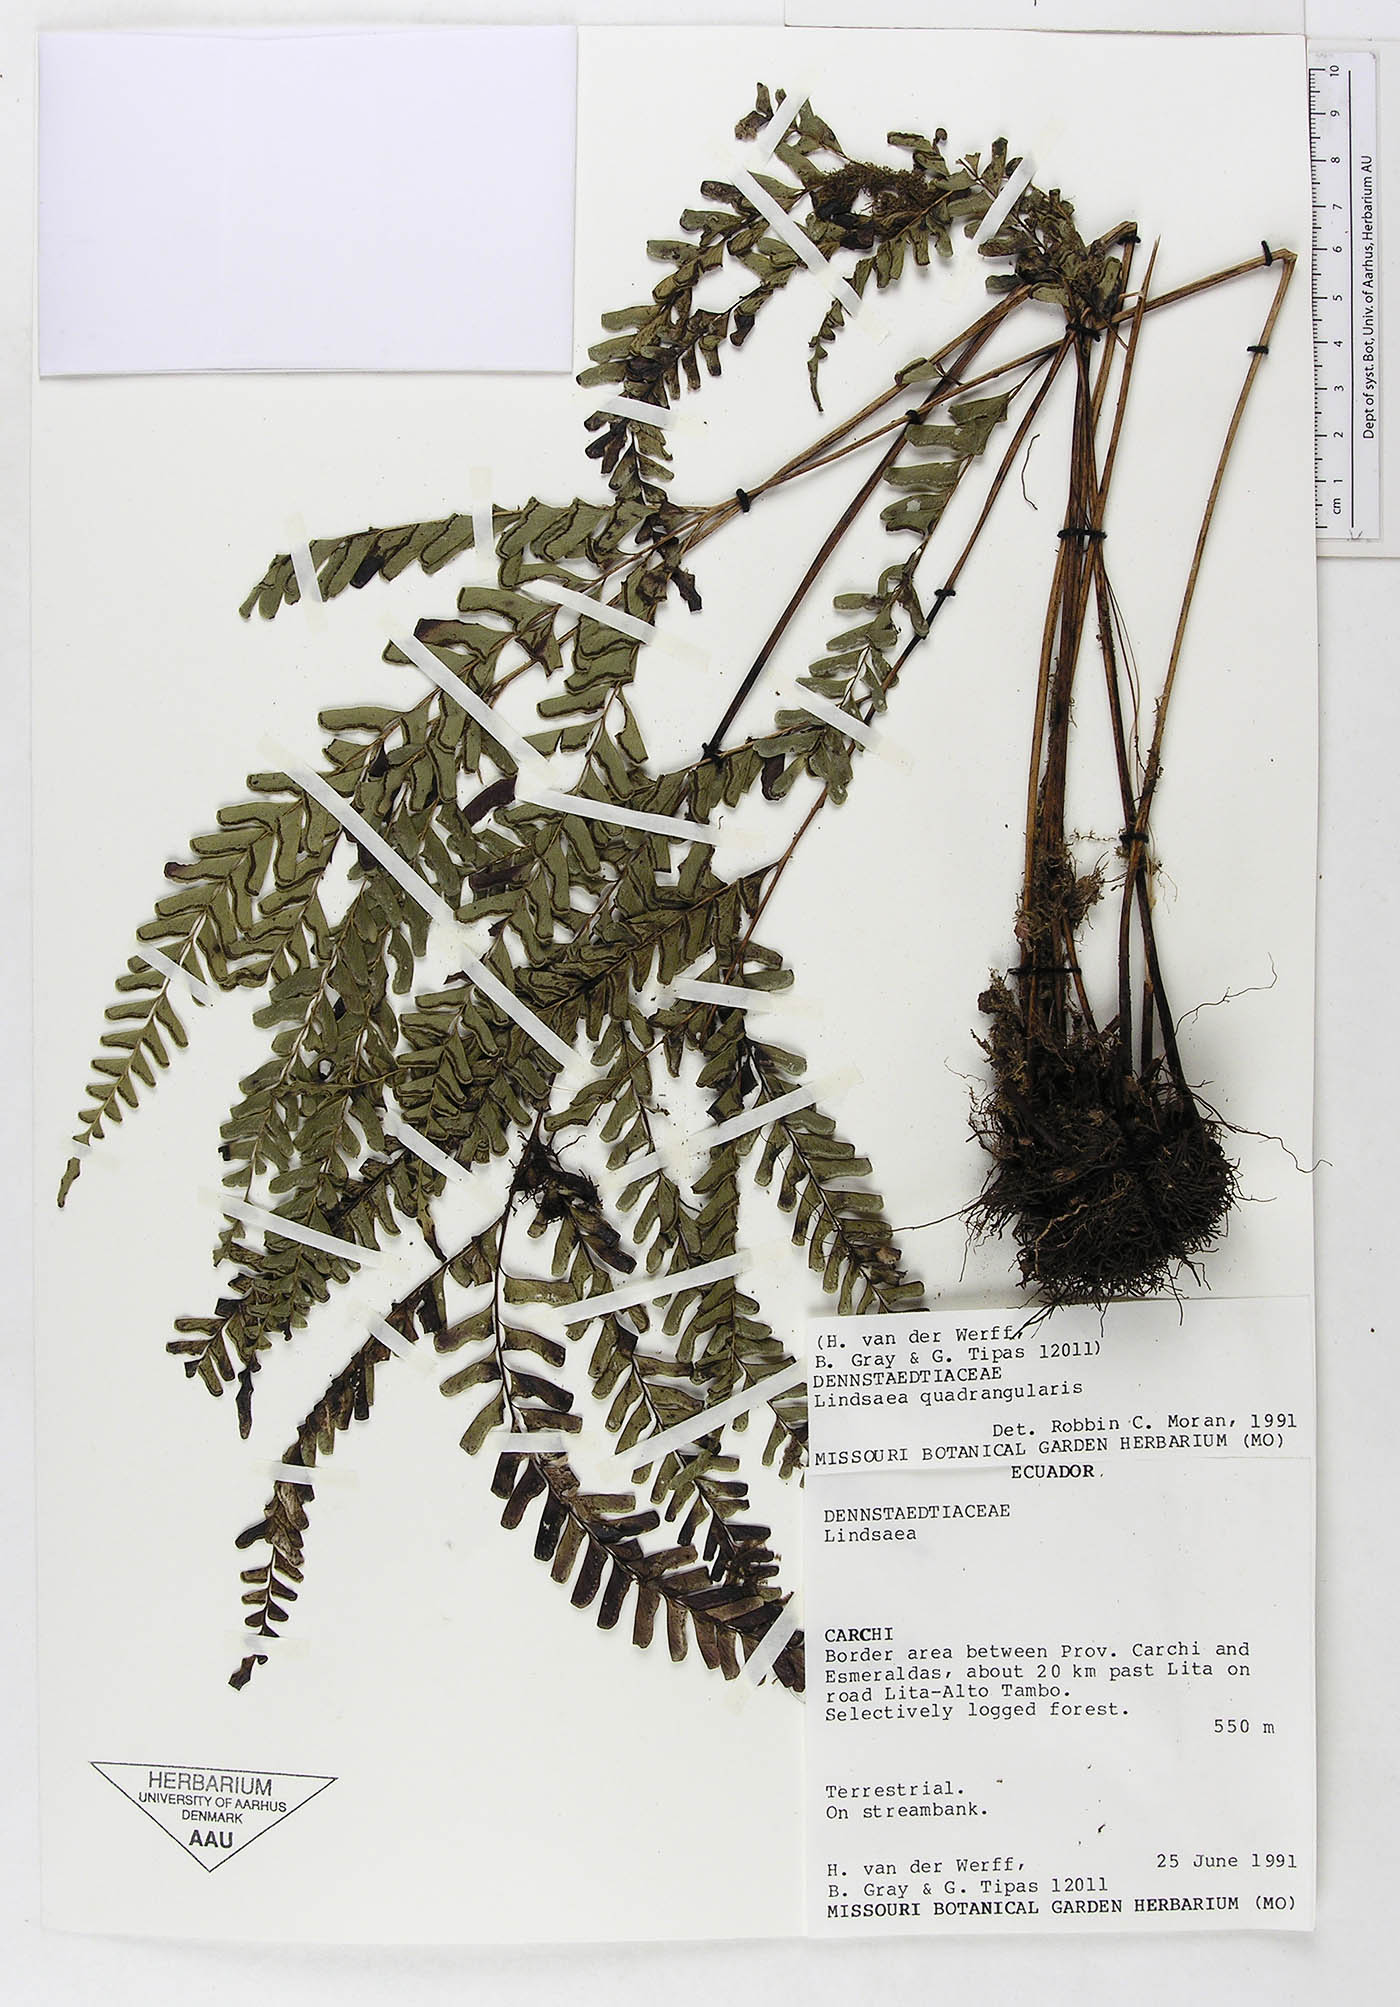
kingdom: Plantae
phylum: Tracheophyta
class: Polypodiopsida
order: Polypodiales
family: Lindsaeaceae
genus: Lindsaea
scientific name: Lindsaea quadrangularis
